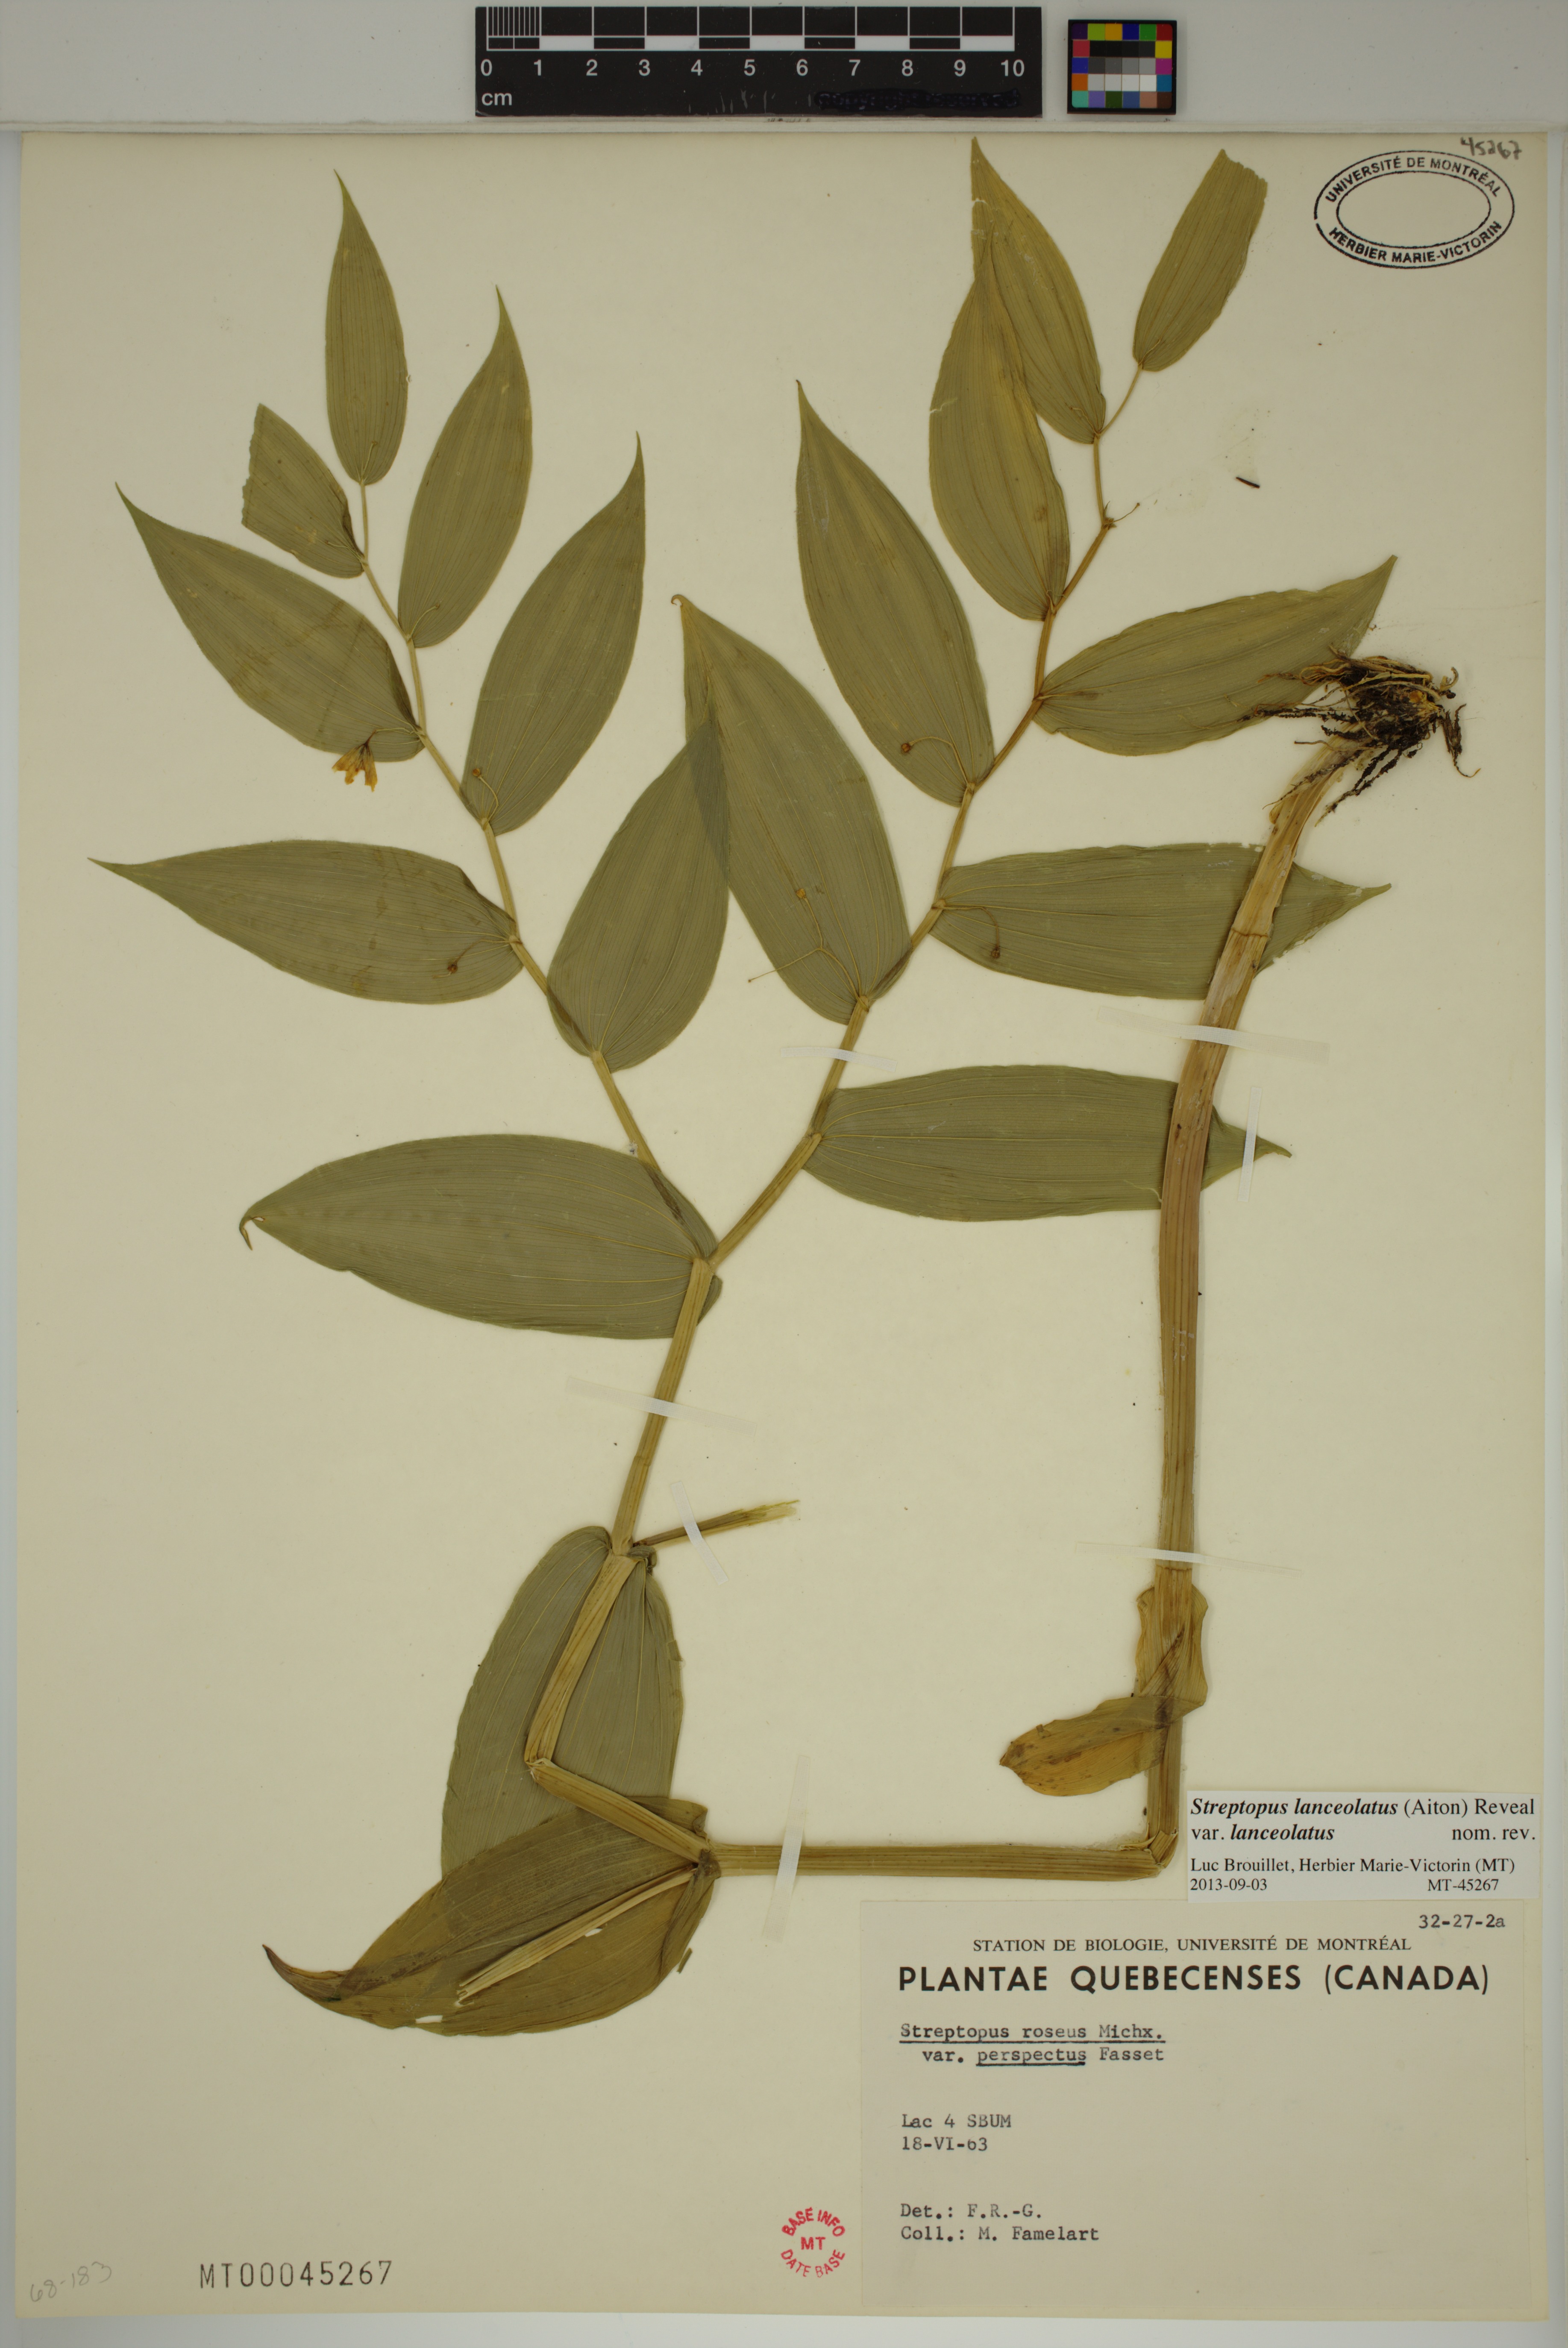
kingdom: Plantae
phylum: Tracheophyta
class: Liliopsida
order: Liliales
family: Liliaceae
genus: Streptopus
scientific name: Streptopus lanceolatus
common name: Rose mandarin
